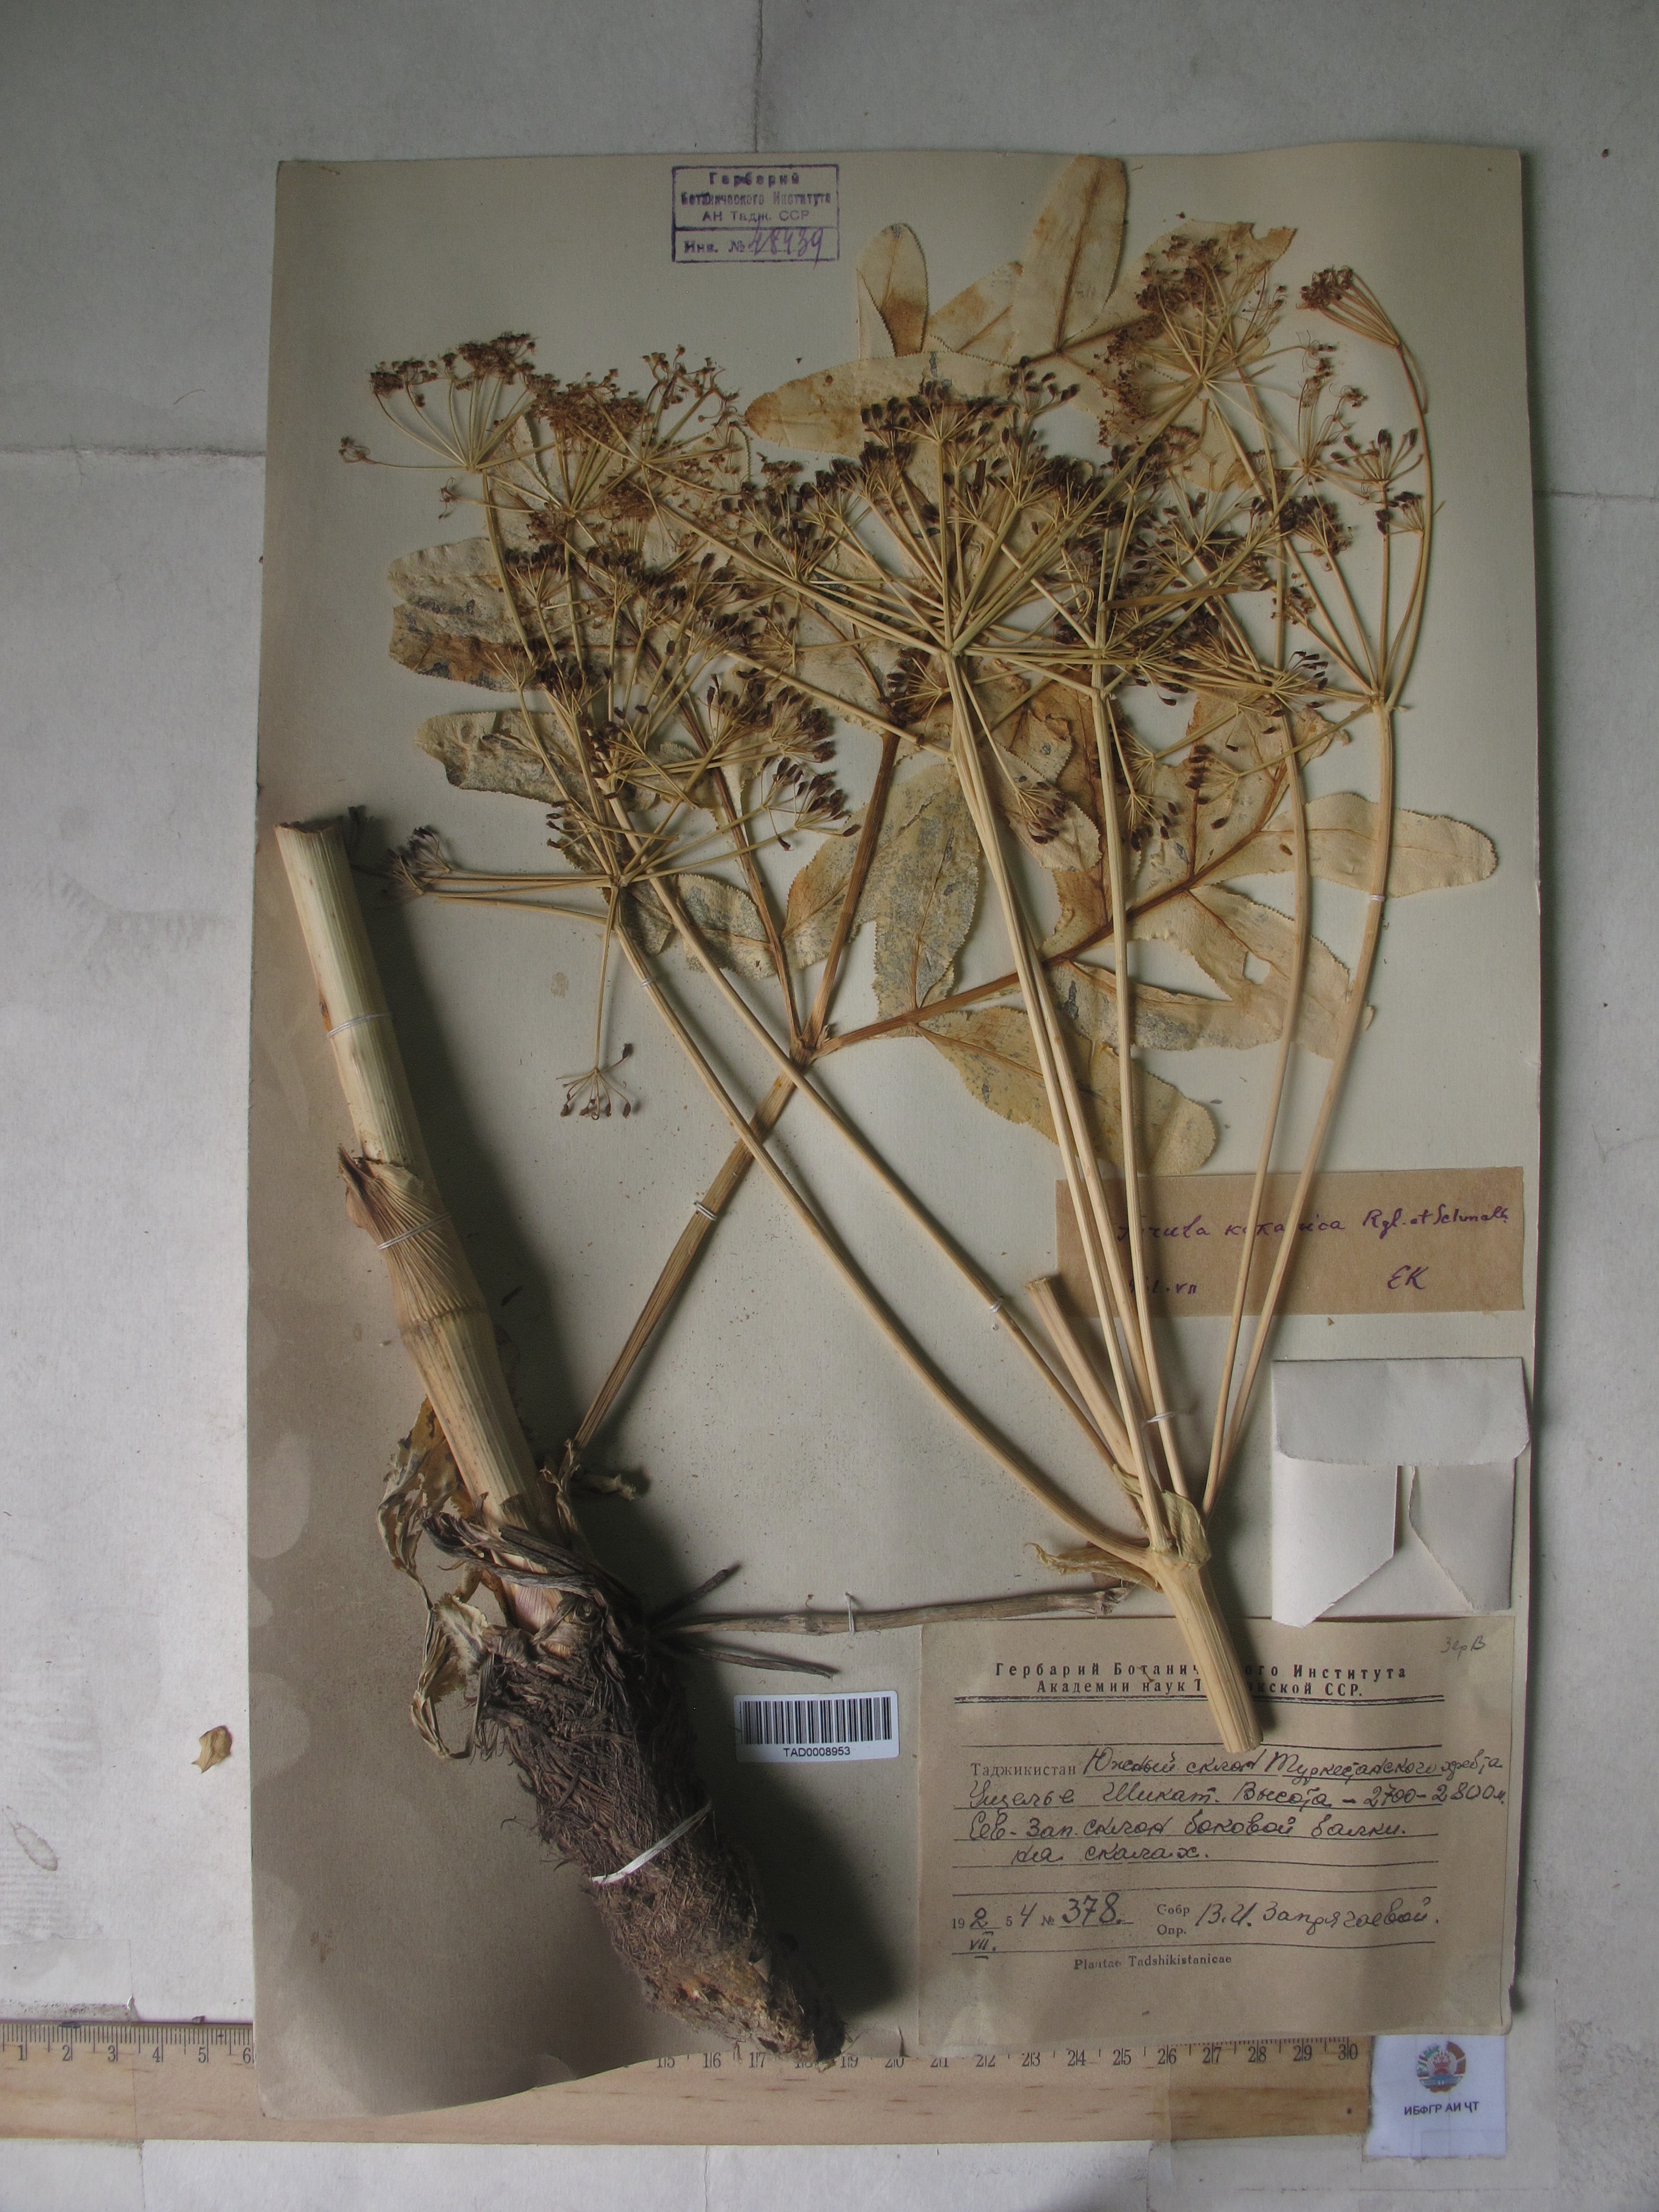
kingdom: Plantae
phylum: Tracheophyta
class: Magnoliopsida
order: Apiales
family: Apiaceae
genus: Ferula
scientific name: Ferula kokanica
